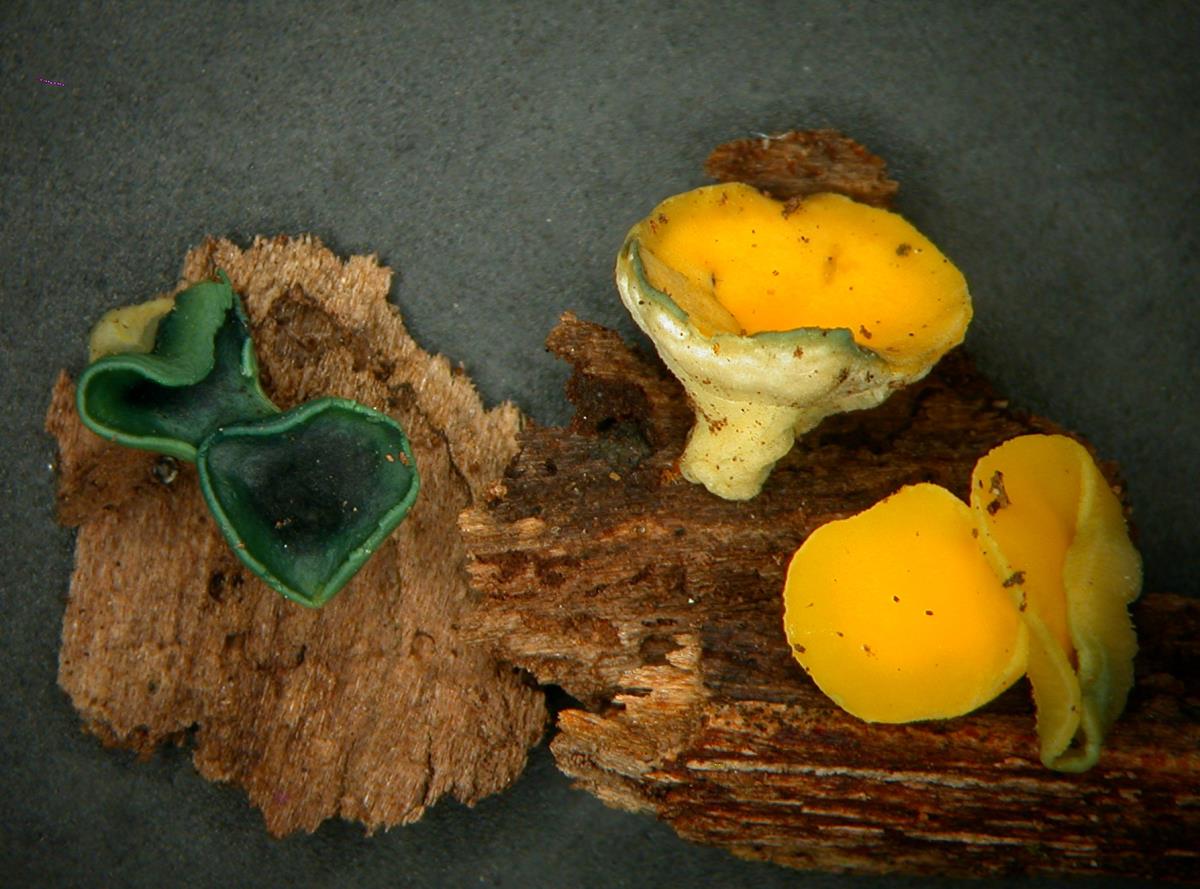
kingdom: Fungi
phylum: Ascomycota
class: Leotiomycetes
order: Helotiales
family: Helotiaceae
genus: Bisporella
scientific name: Bisporella
